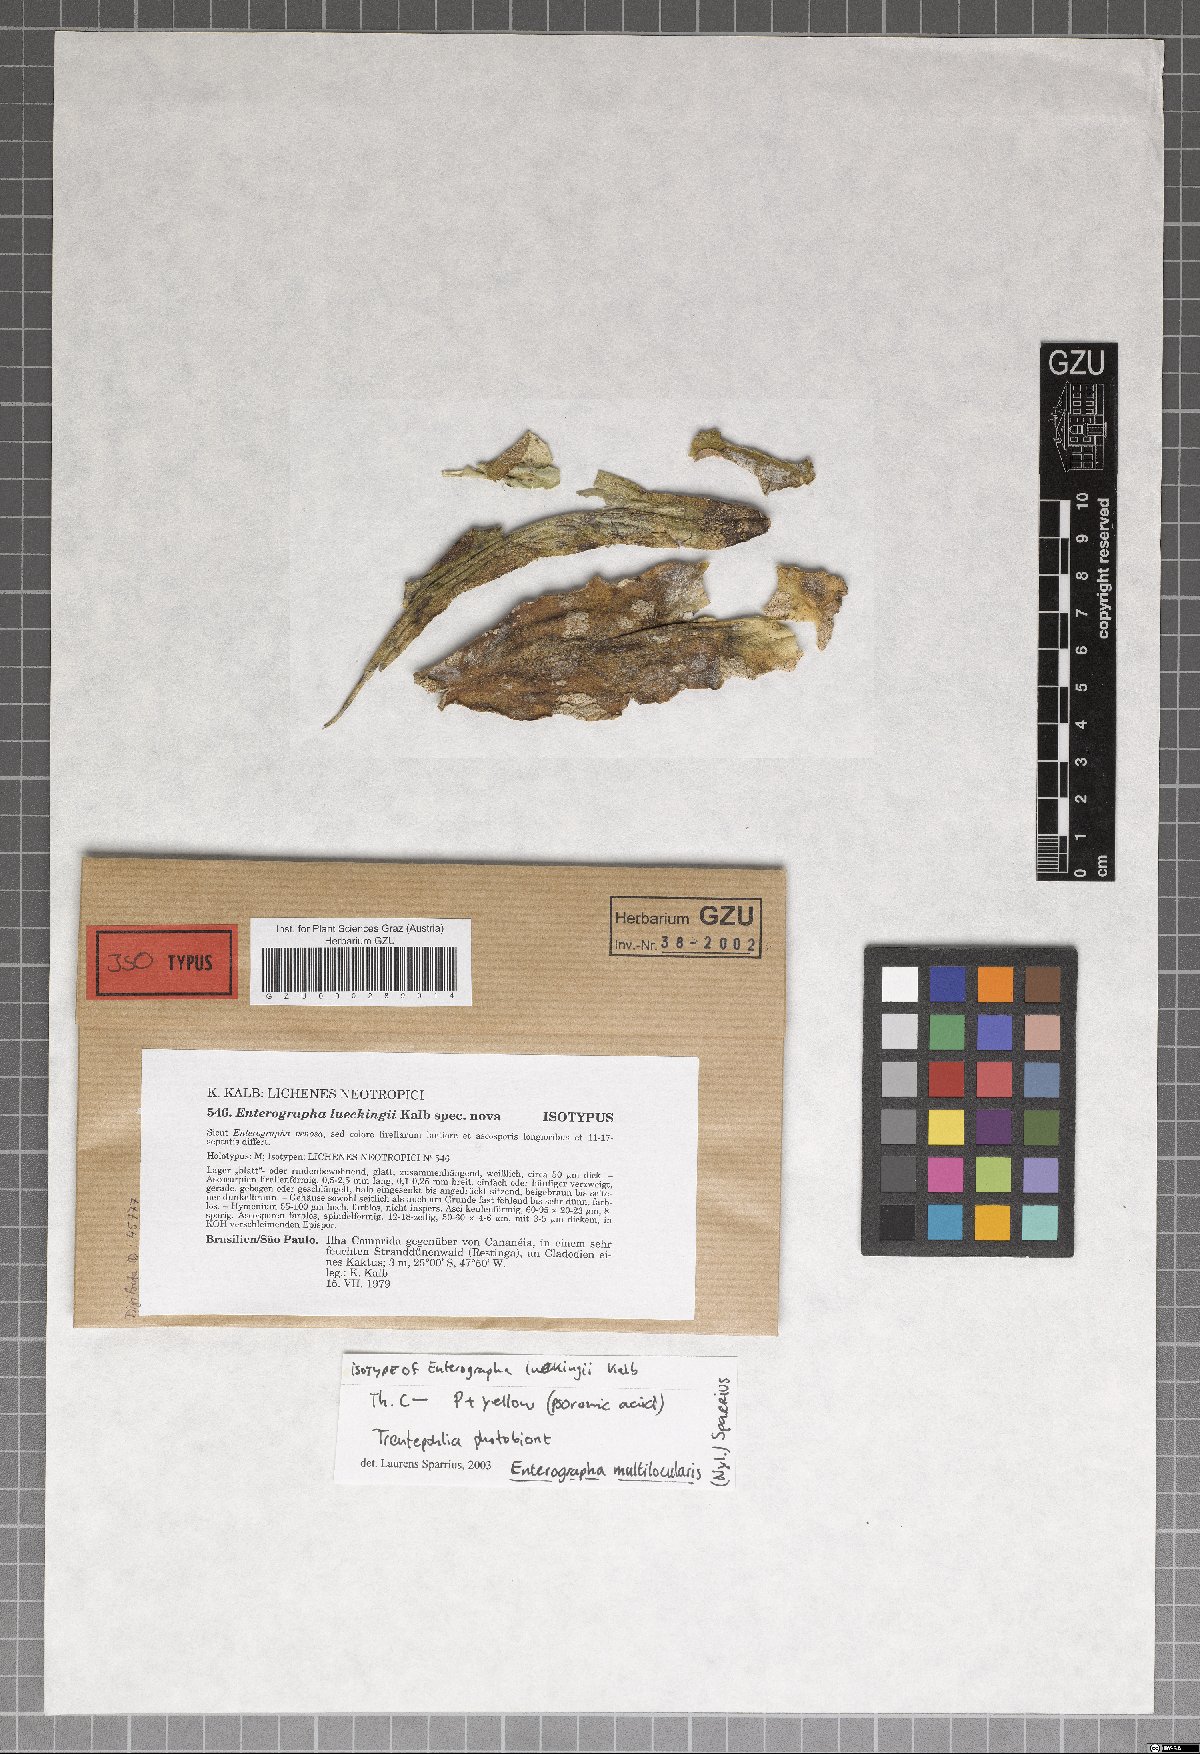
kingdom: Fungi
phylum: Ascomycota
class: Arthoniomycetes
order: Arthoniales
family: Roccellaceae
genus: Enterographa
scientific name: Enterographa lueckingii
